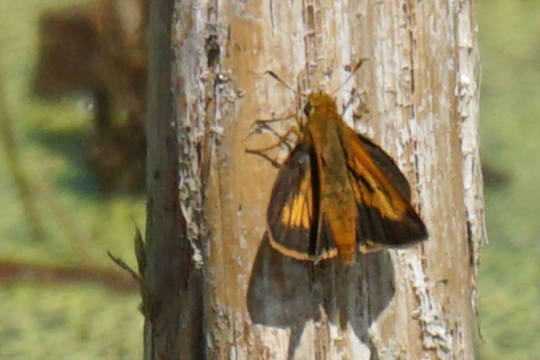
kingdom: Animalia
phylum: Arthropoda
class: Insecta
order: Lepidoptera
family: Hesperiidae
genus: Euphyes
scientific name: Euphyes conspicua
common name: Black Dash
